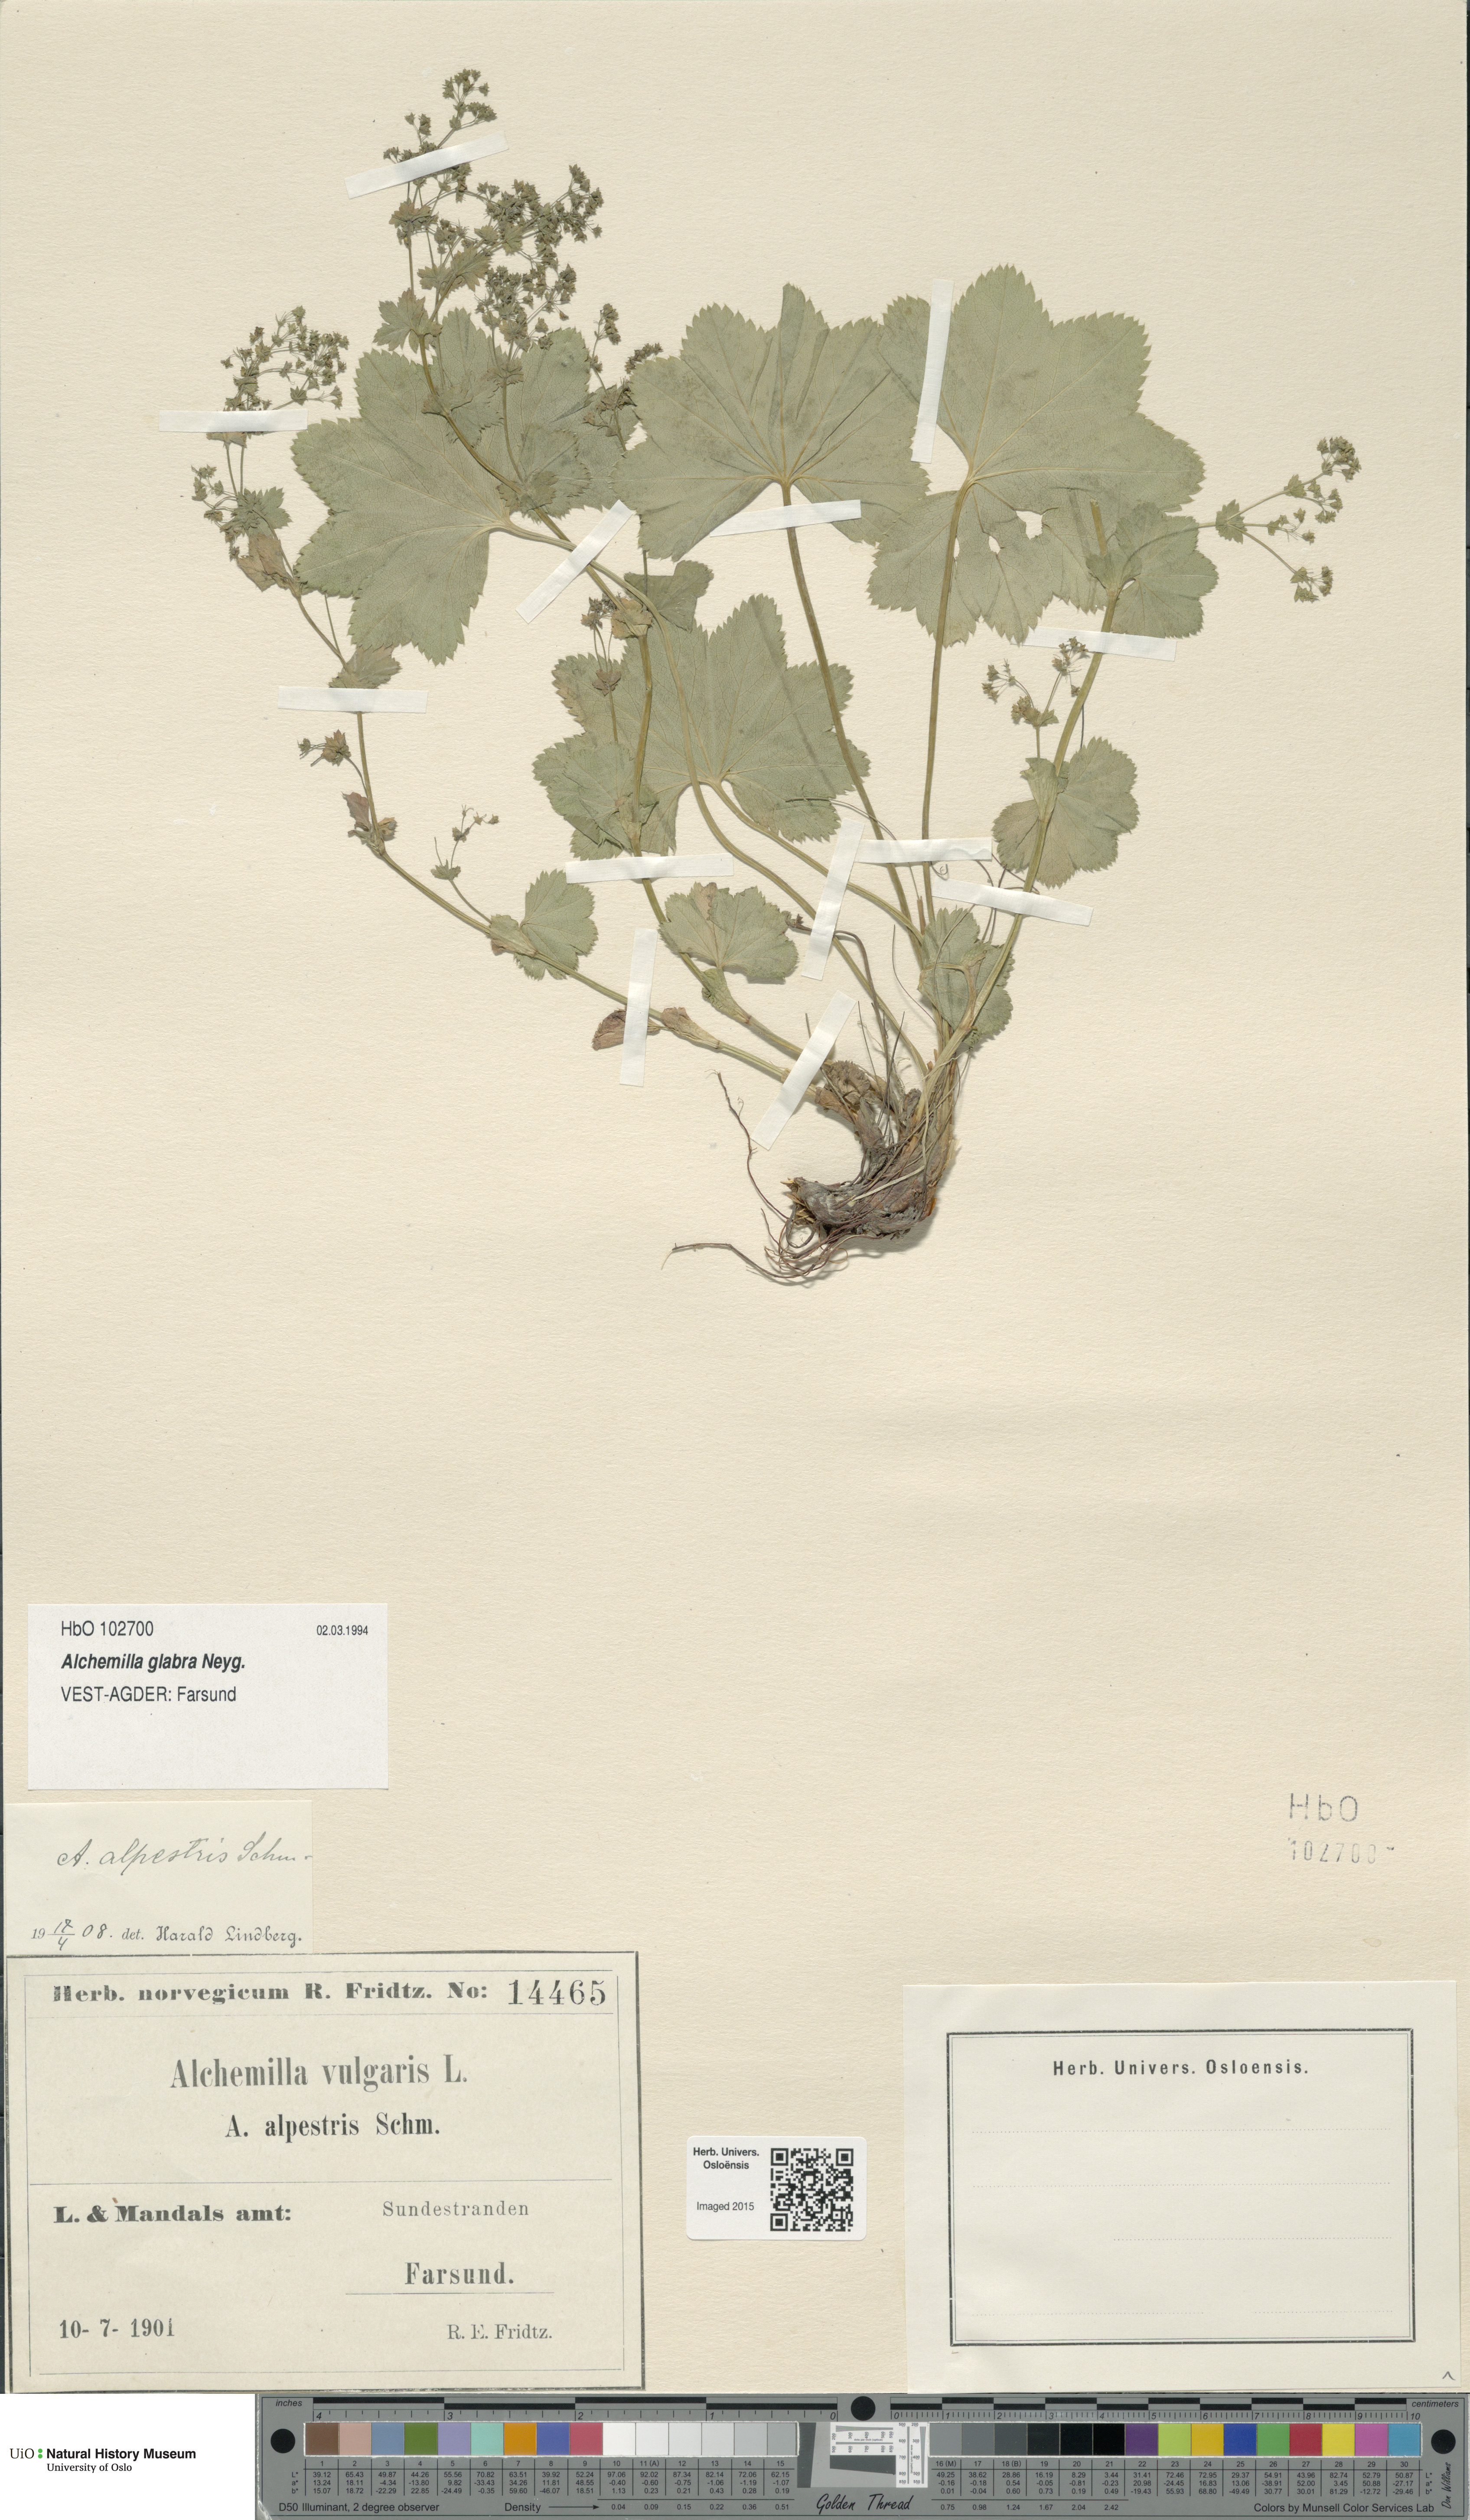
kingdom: Plantae
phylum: Tracheophyta
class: Magnoliopsida
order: Rosales
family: Rosaceae
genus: Alchemilla
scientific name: Alchemilla glabra
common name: Smooth lady's-mantle
